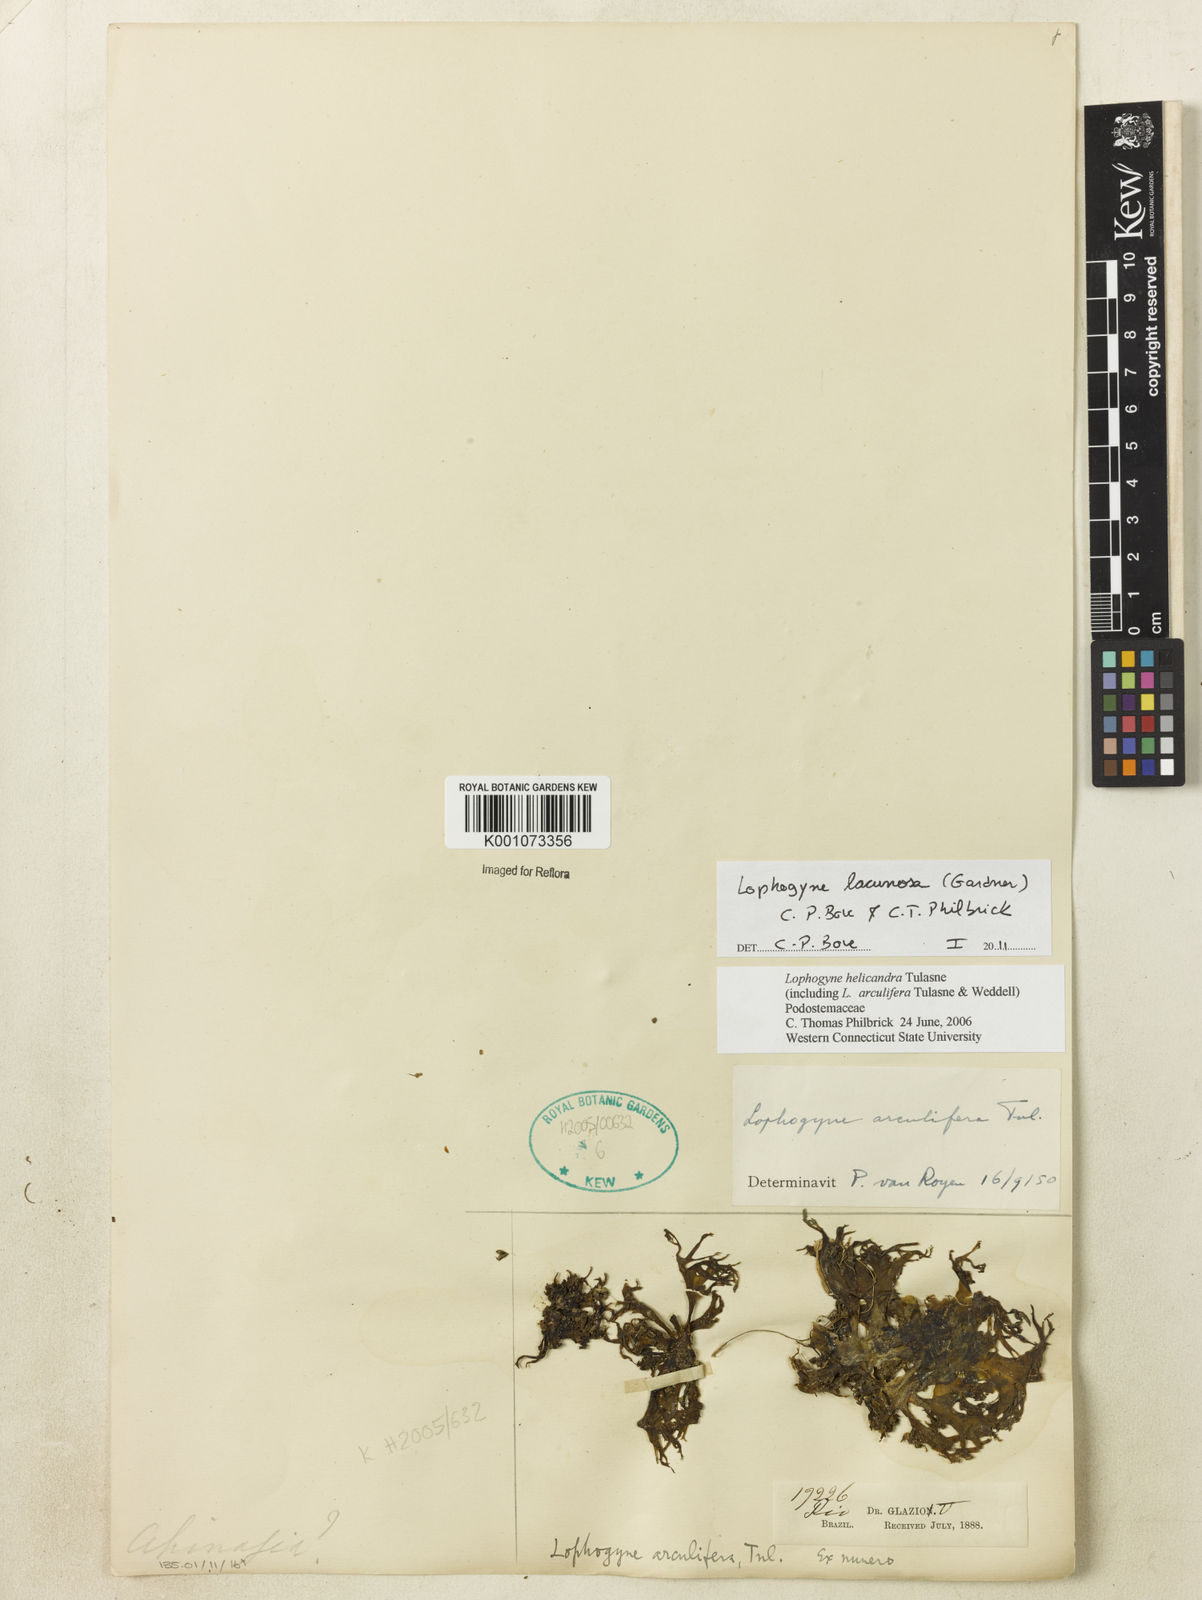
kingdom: Plantae
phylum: Tracheophyta
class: Magnoliopsida
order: Malpighiales
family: Podostemaceae
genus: Lophogyne
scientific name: Lophogyne lacunosa
